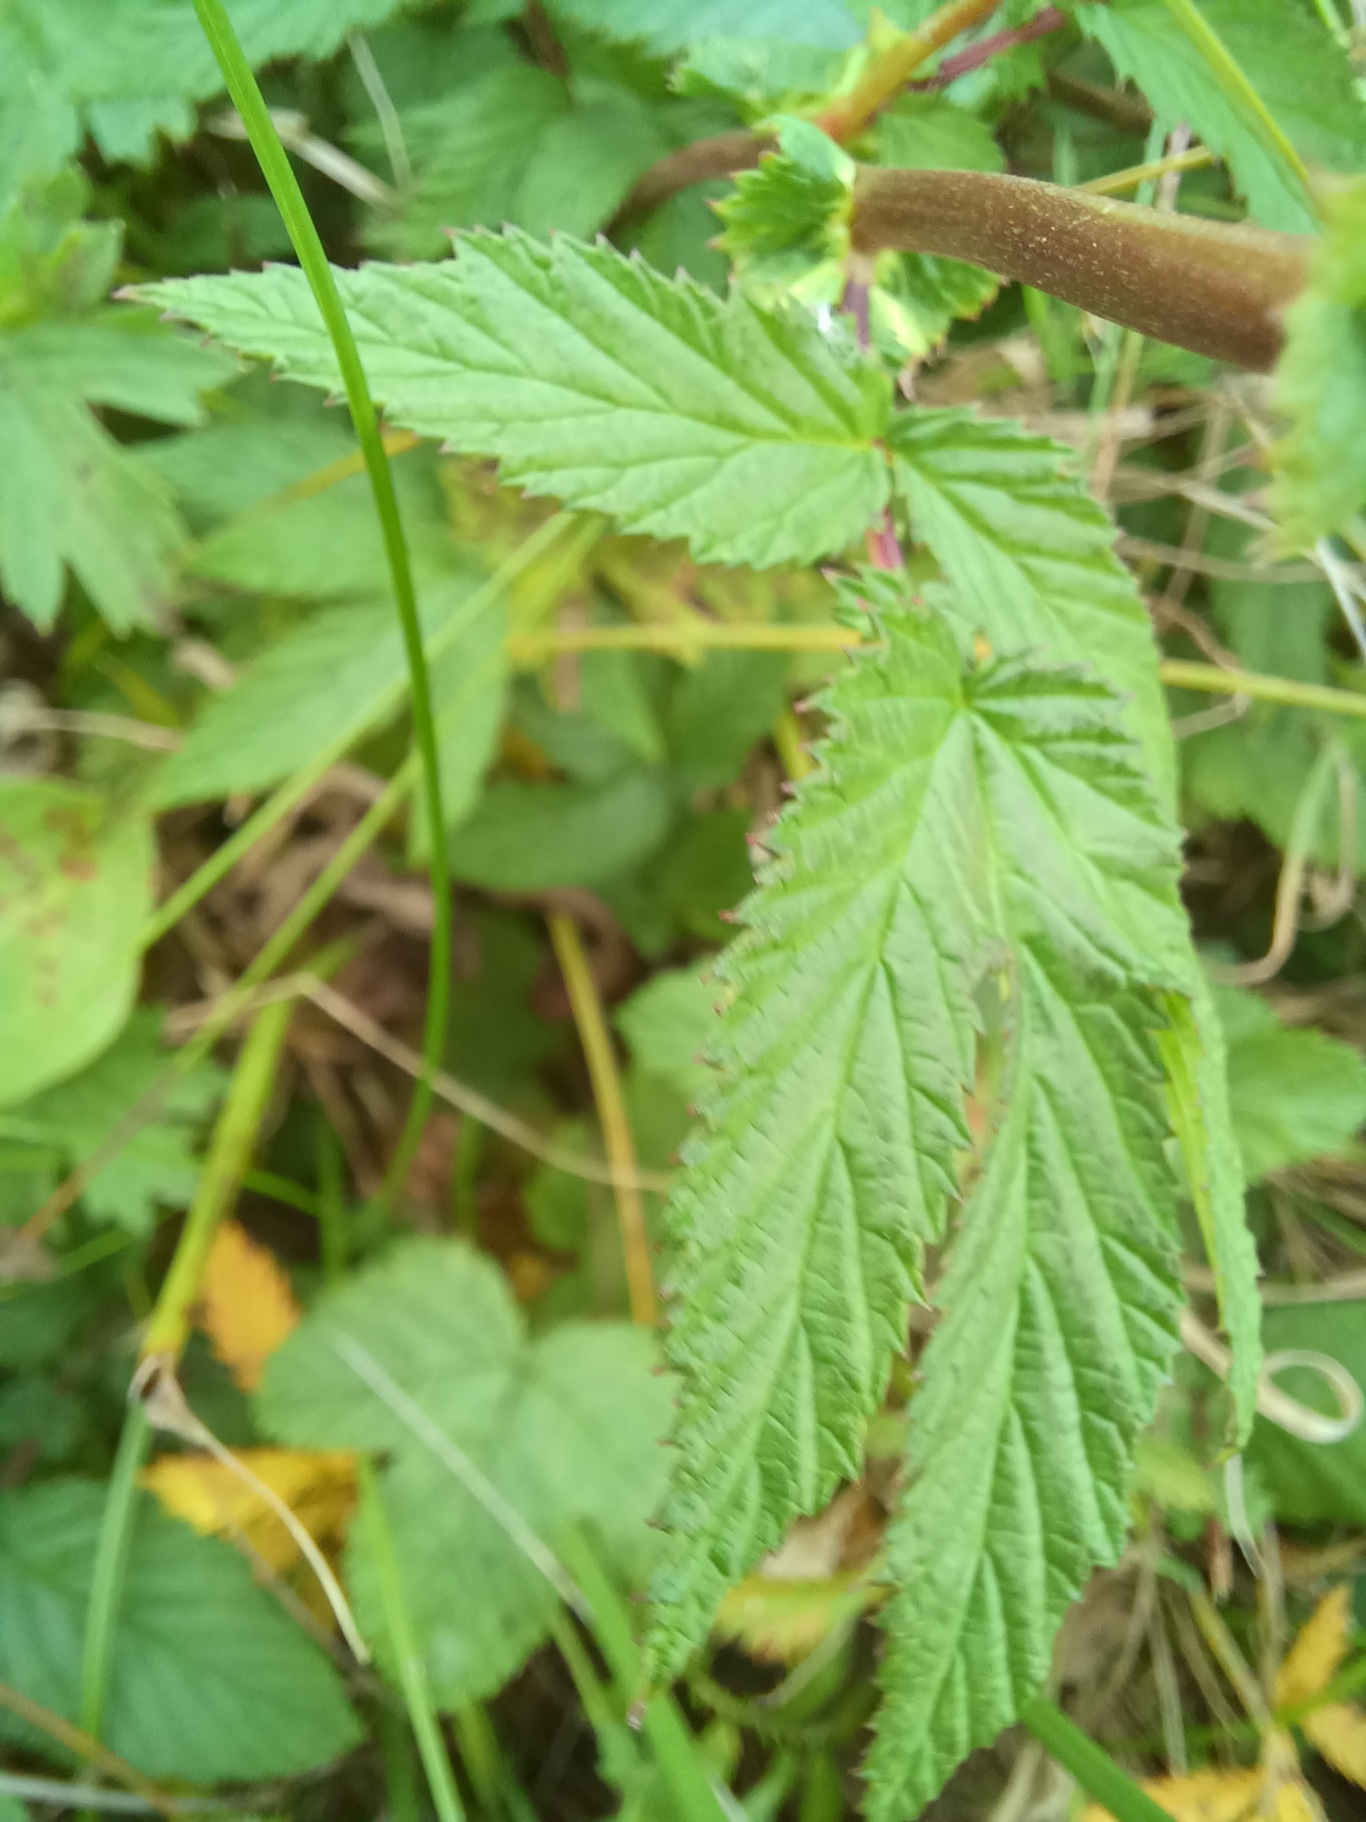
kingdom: Plantae
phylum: Tracheophyta
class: Magnoliopsida
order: Rosales
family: Rosaceae
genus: Filipendula
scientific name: Filipendula ulmaria
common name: Almindelig mjødurt
